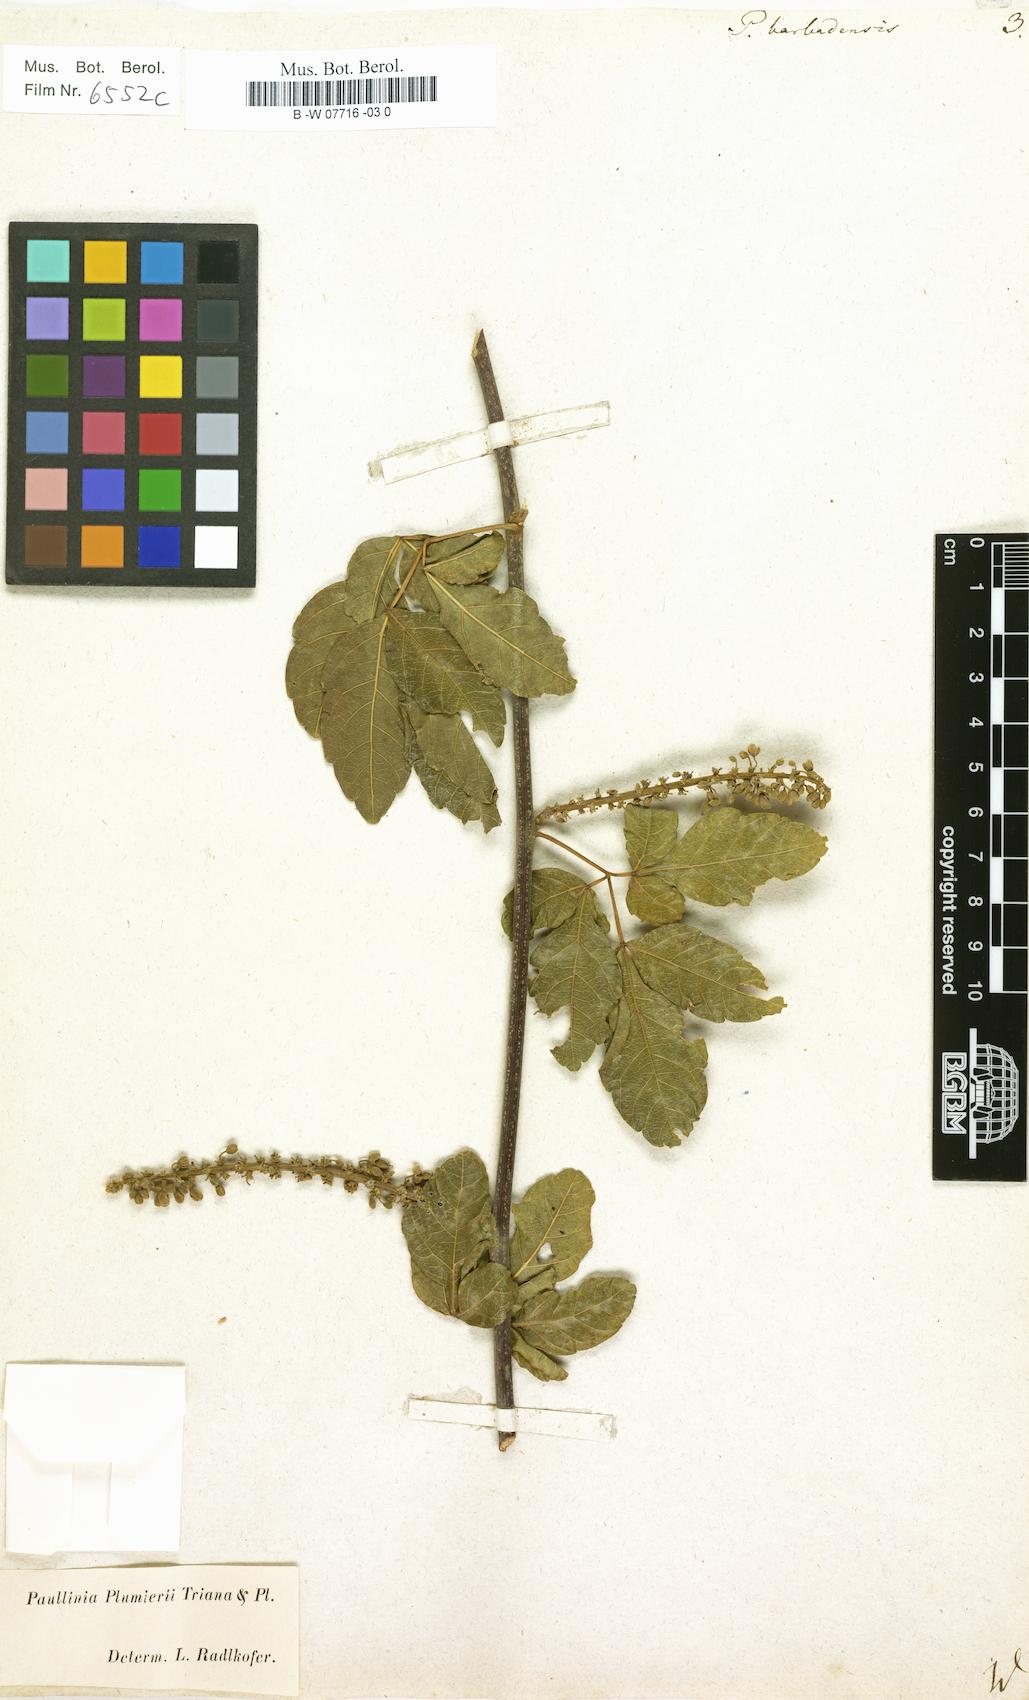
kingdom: Plantae
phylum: Tracheophyta
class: Magnoliopsida
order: Sapindales
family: Sapindaceae
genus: Paullinia
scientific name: Paullinia barbadensis
